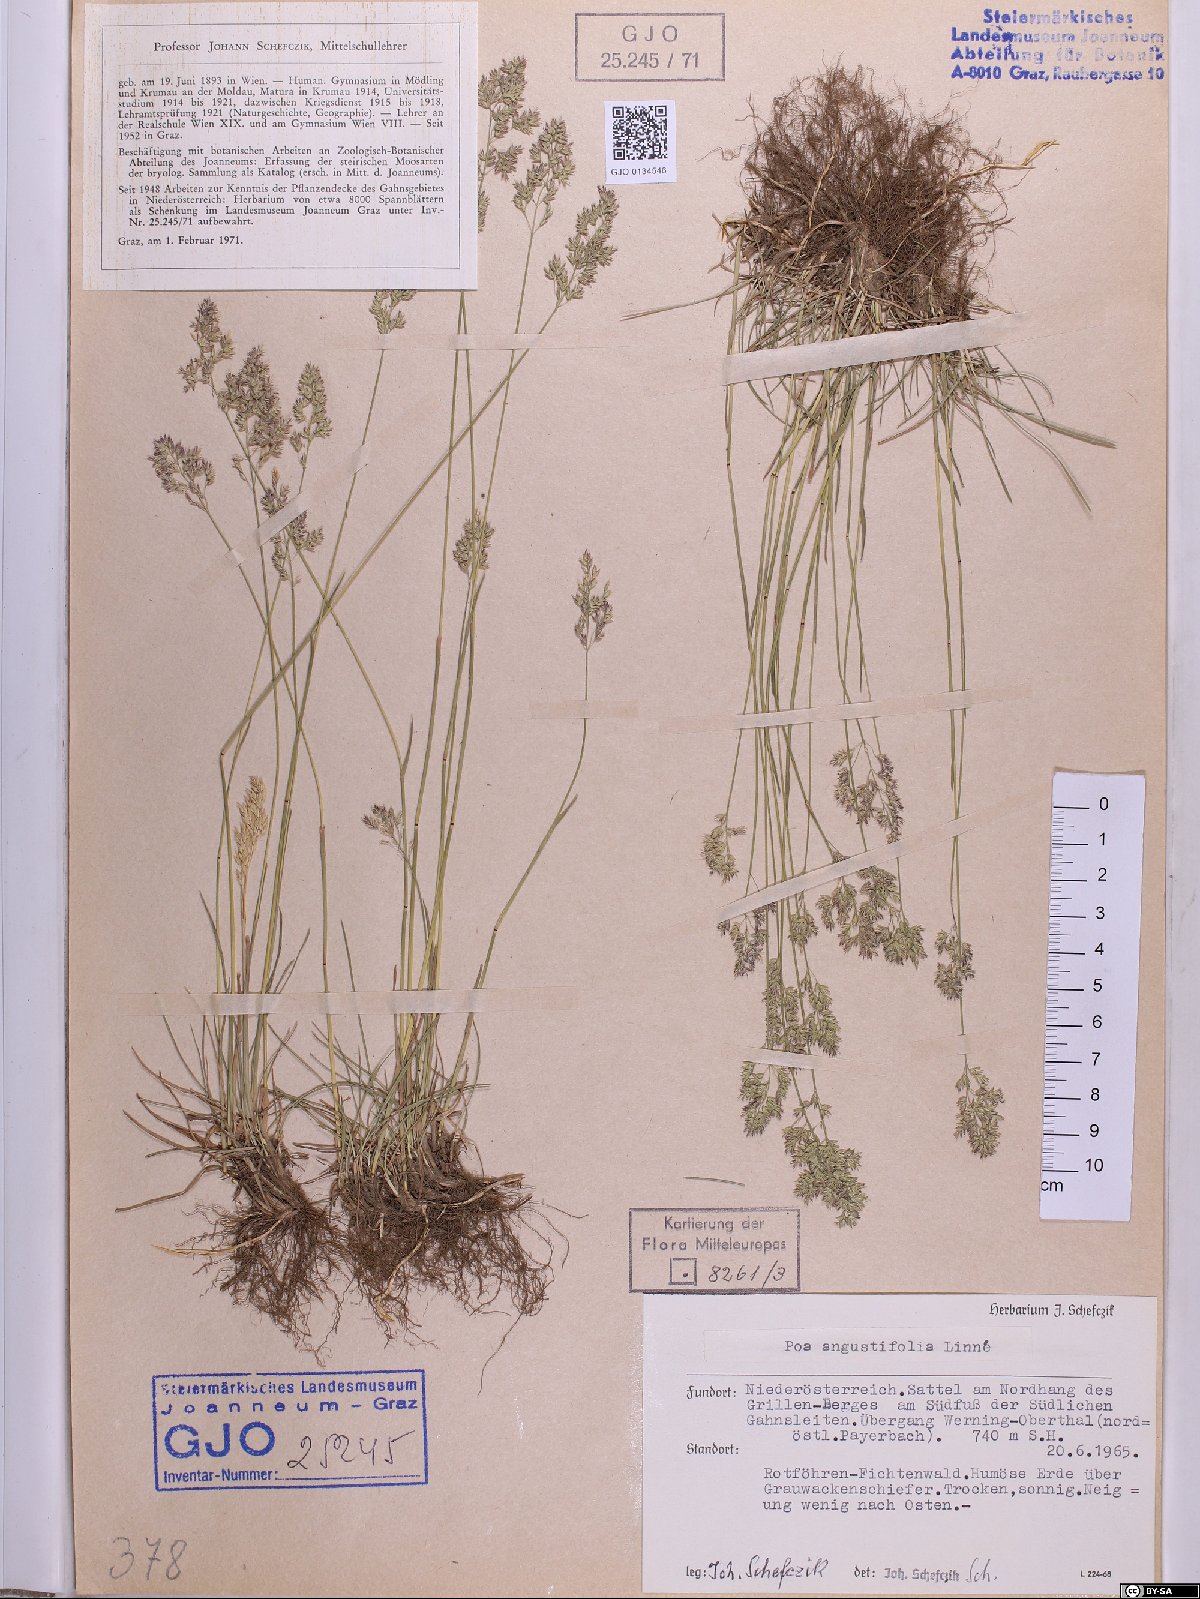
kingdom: Plantae
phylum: Tracheophyta
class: Liliopsida
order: Poales
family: Poaceae
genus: Poa
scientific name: Poa angustifolia
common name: Narrow-leaved meadow-grass
